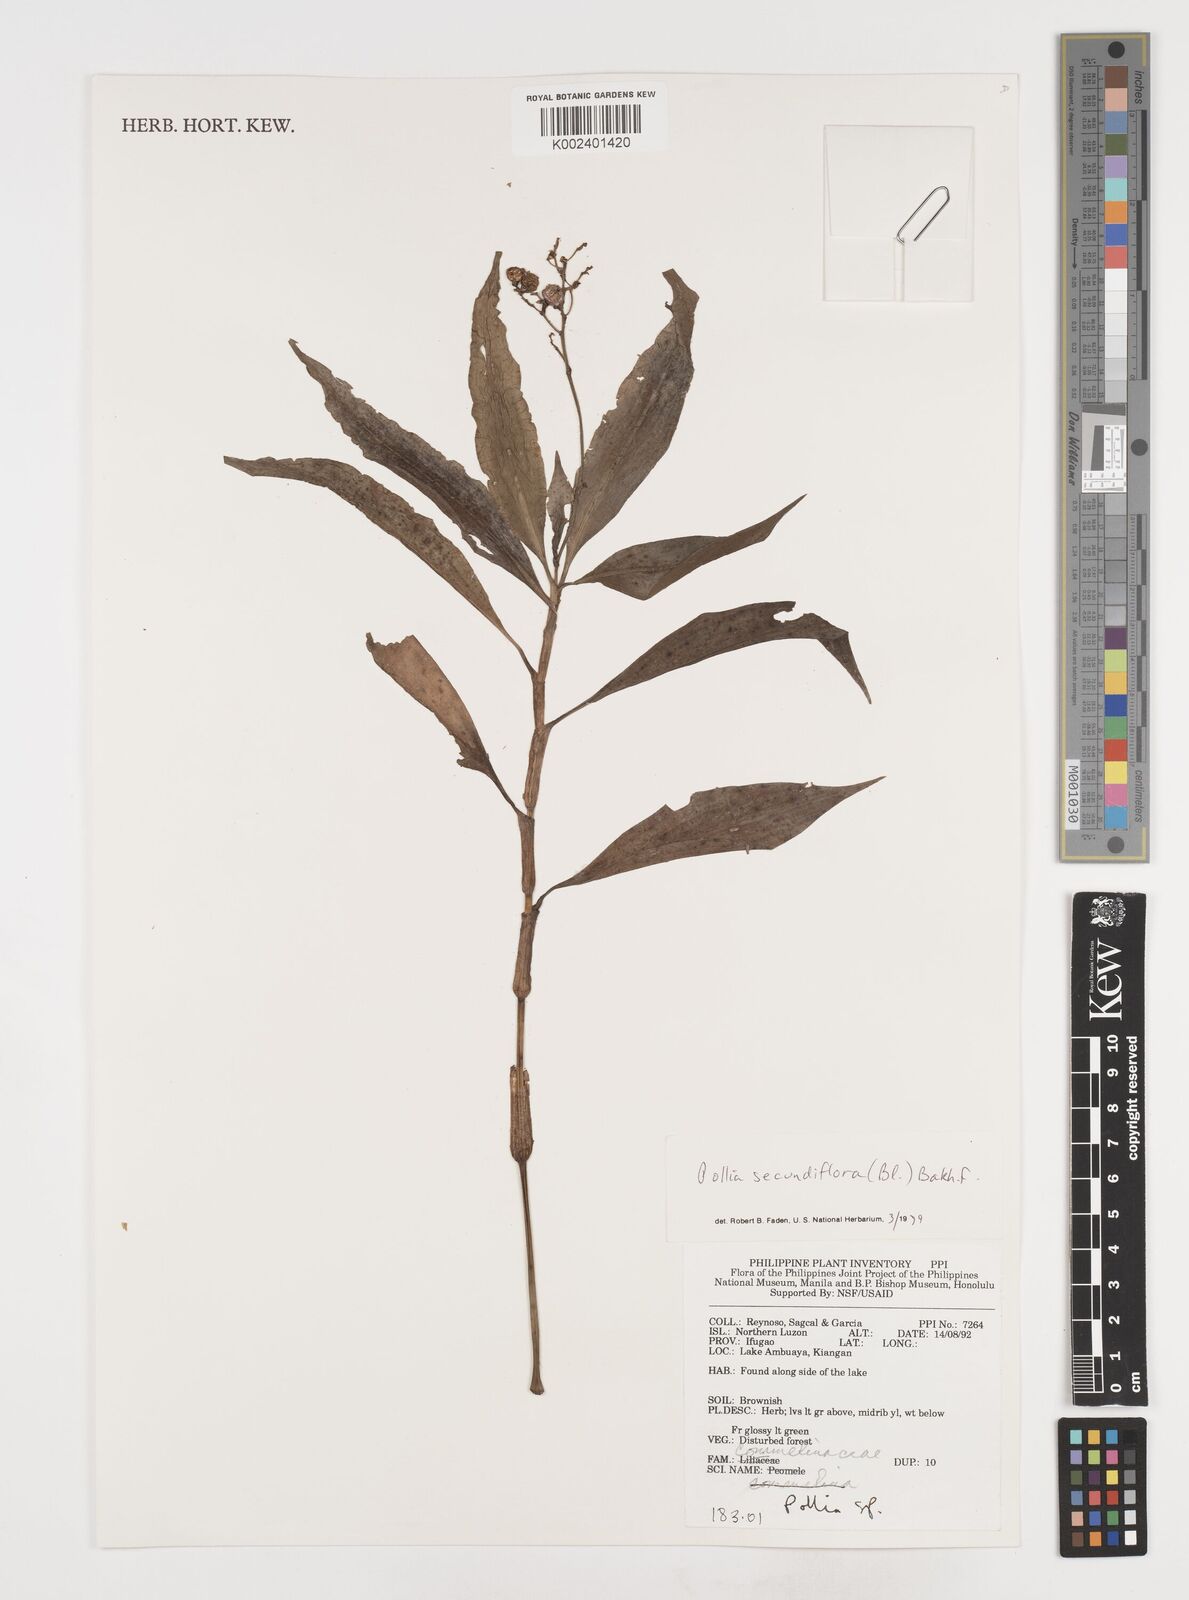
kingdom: Plantae
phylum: Tracheophyta
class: Liliopsida
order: Commelinales
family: Commelinaceae
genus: Pollia
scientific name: Pollia secundiflora
